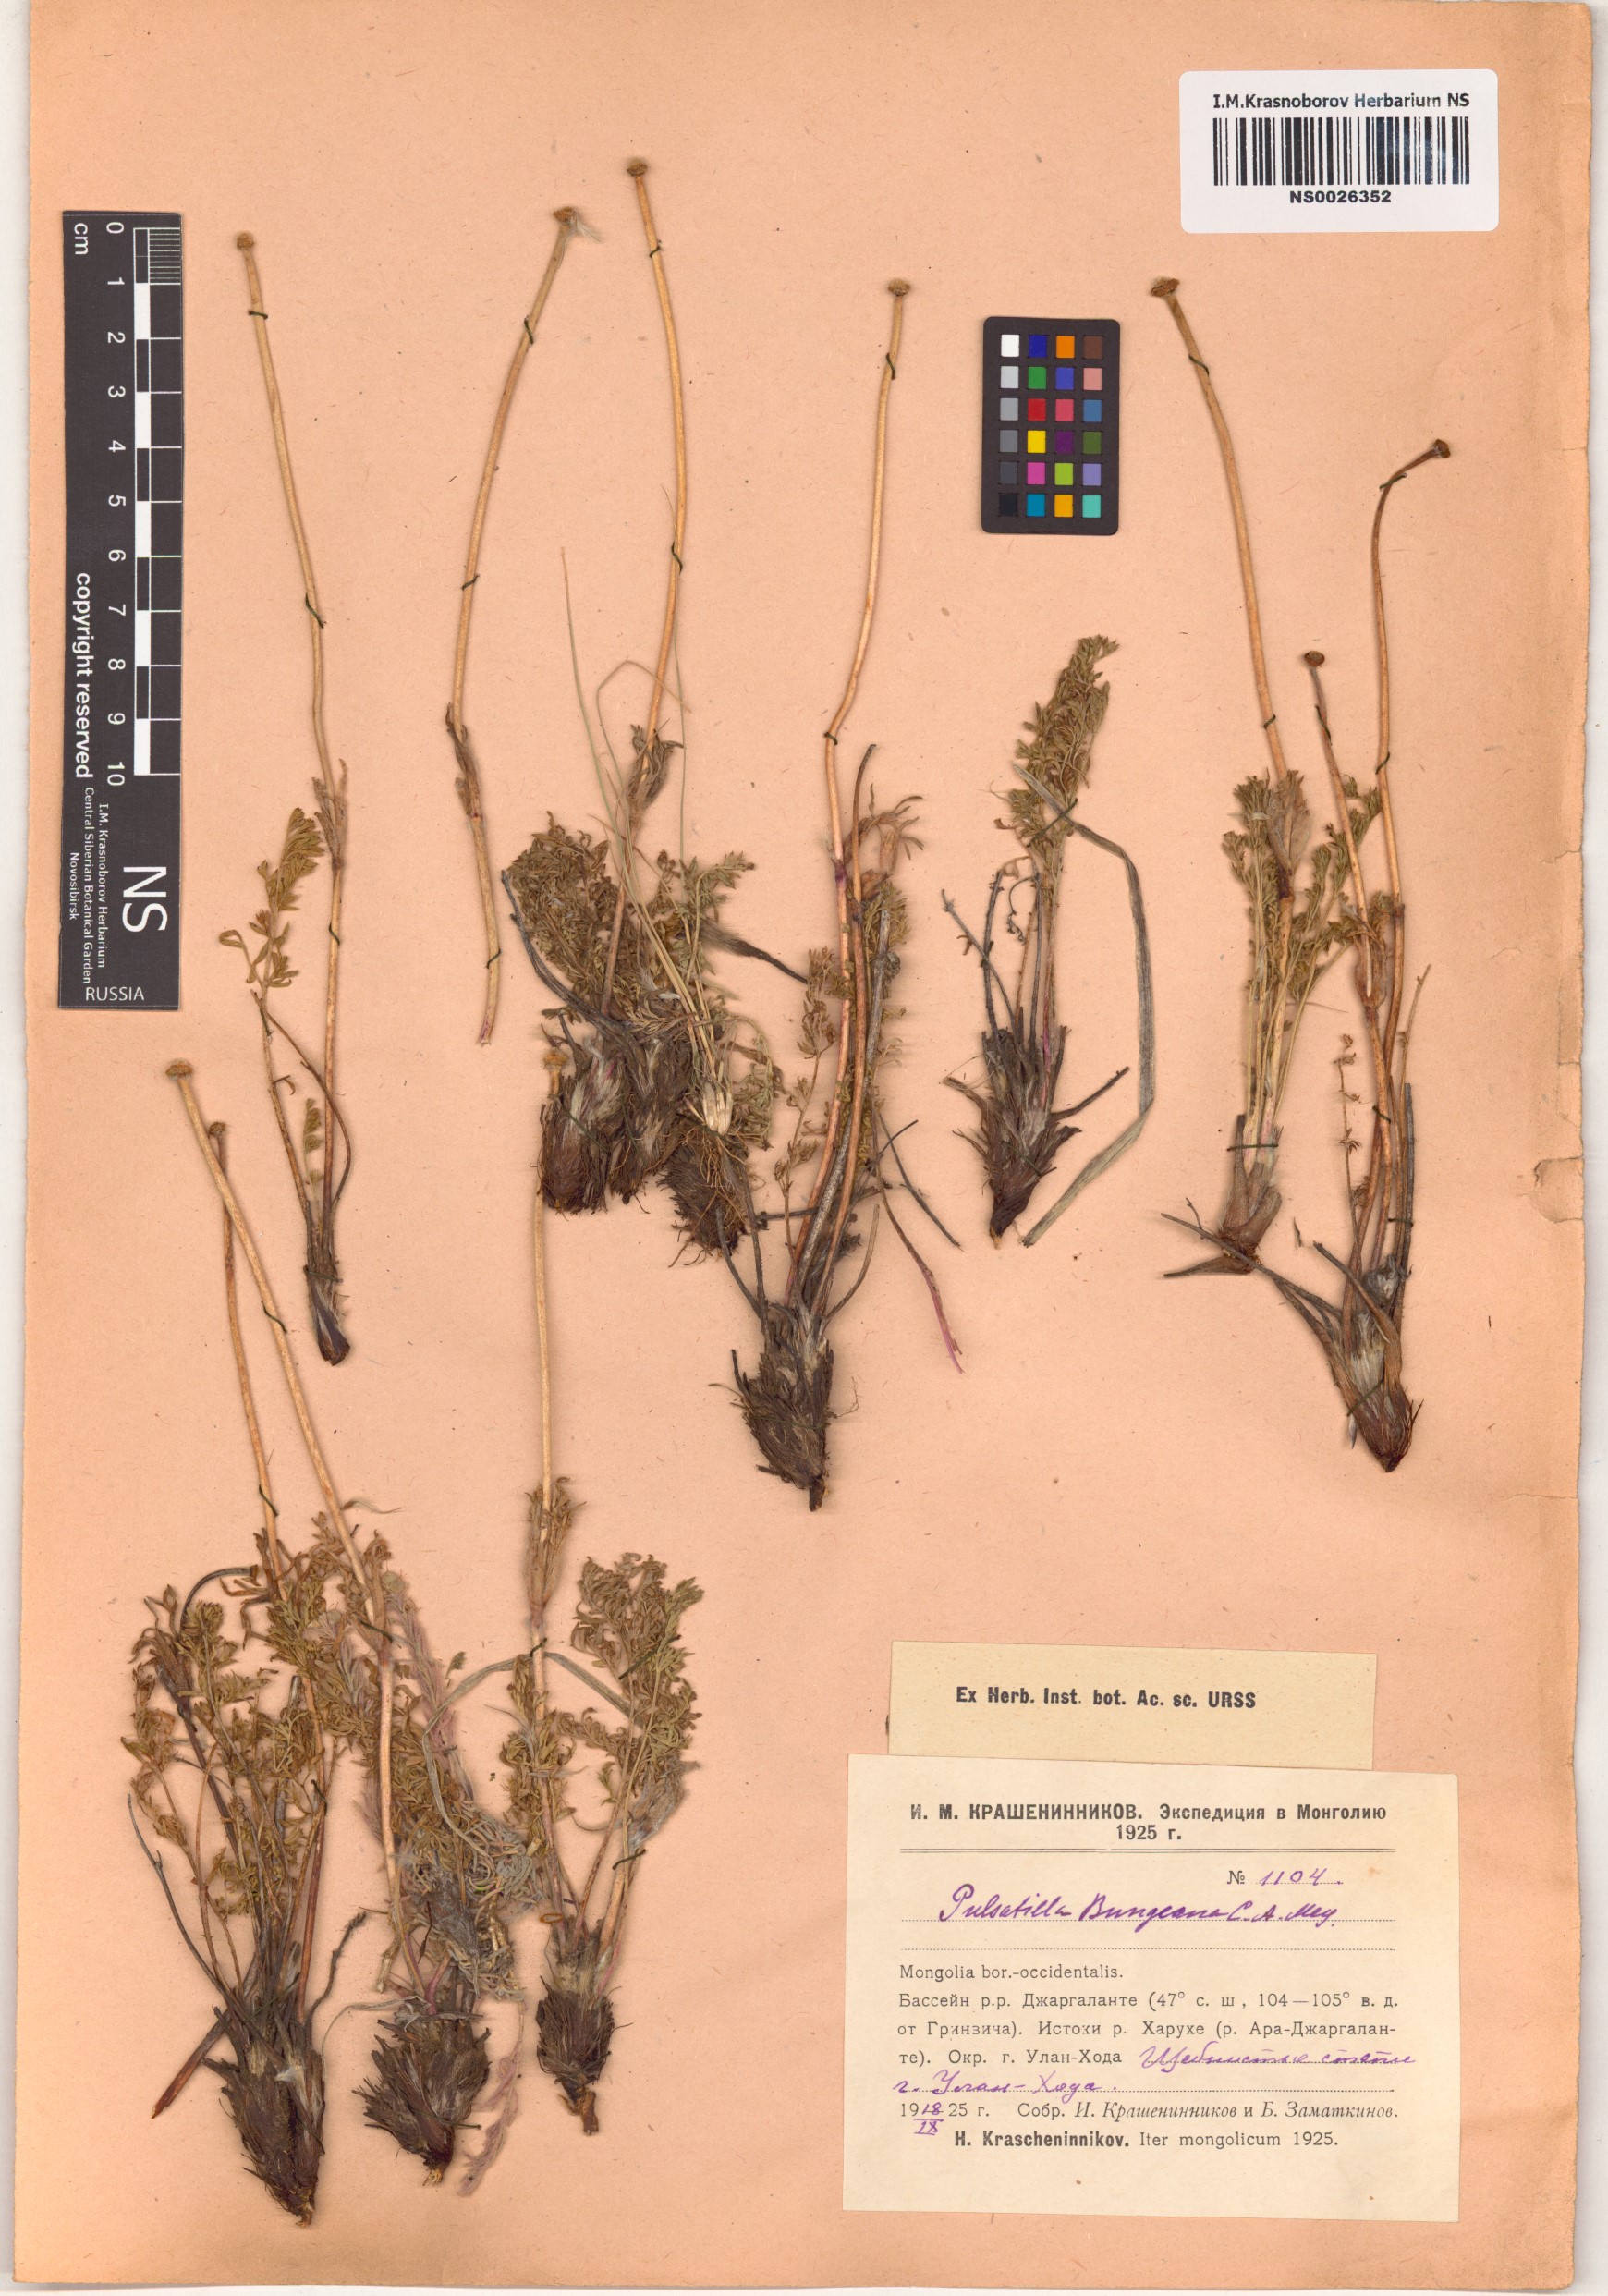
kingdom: Plantae
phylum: Tracheophyta
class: Magnoliopsida
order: Ranunculales
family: Ranunculaceae
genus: Pulsatilla
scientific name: Pulsatilla bungeana
